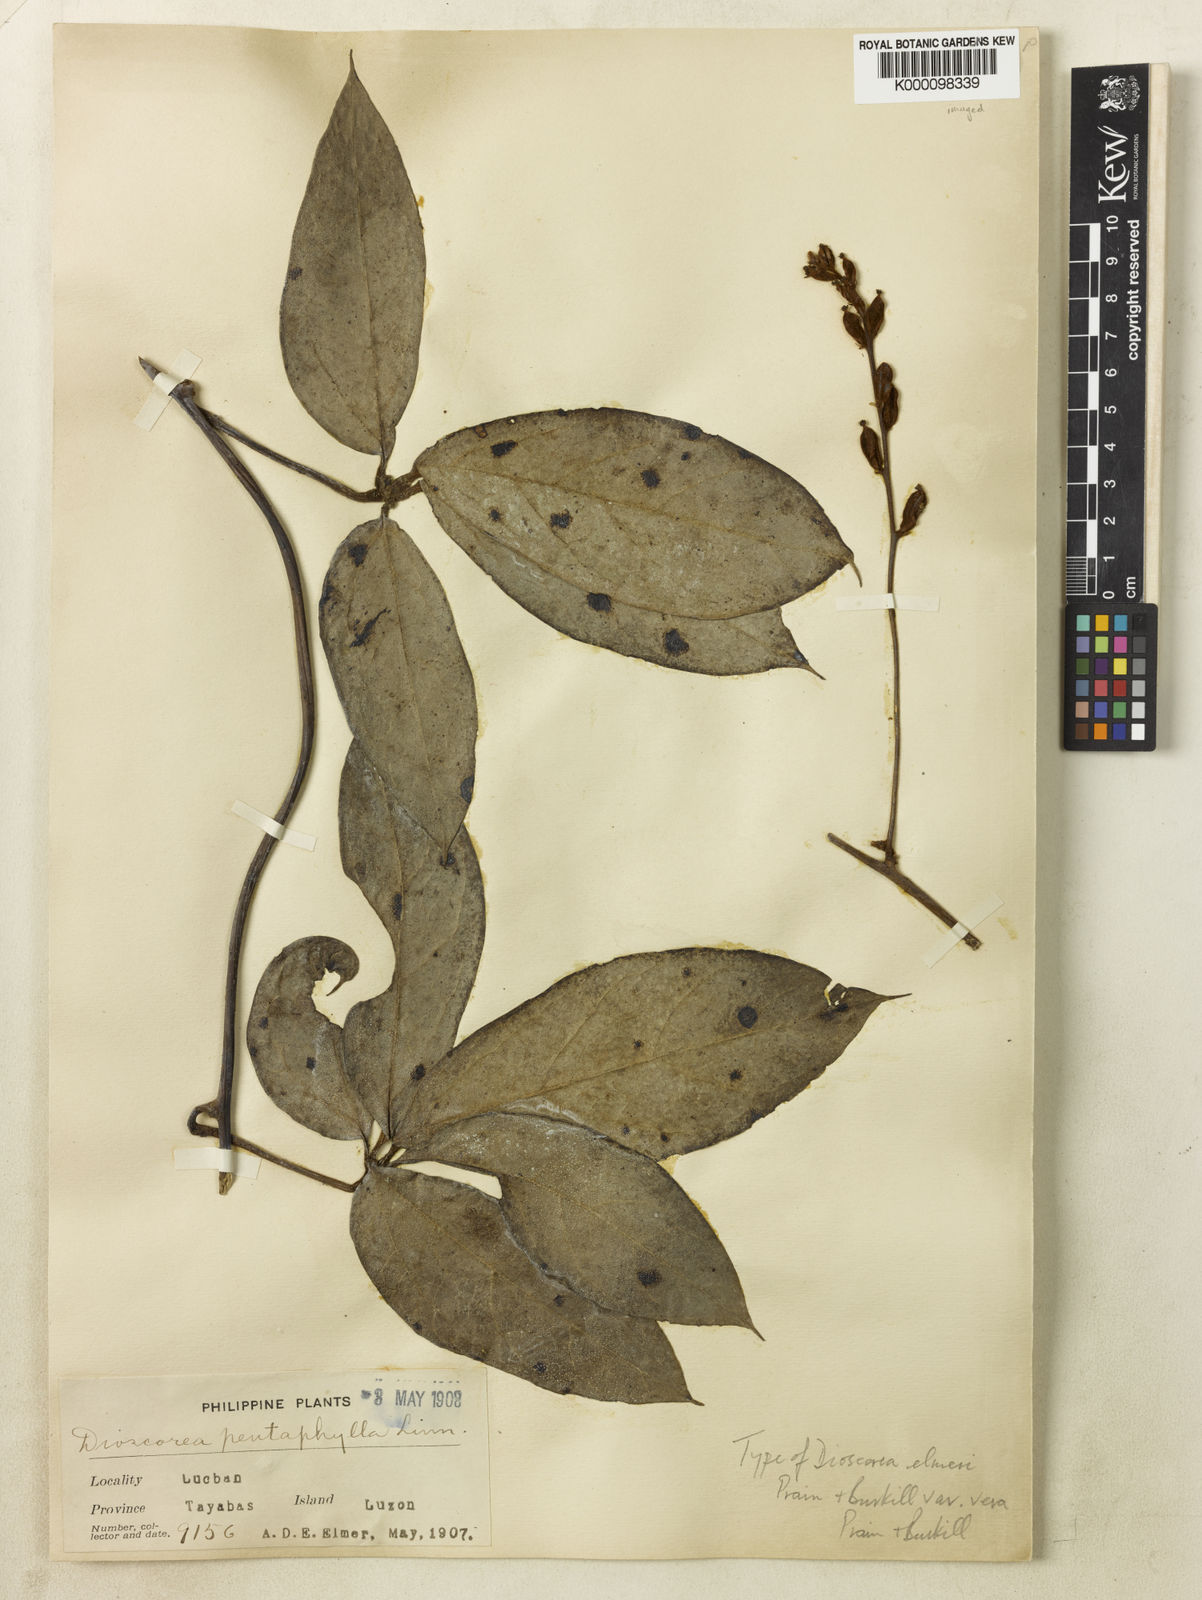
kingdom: Plantae
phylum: Tracheophyta
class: Liliopsida
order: Dioscoreales
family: Dioscoreaceae
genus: Dioscorea
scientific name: Dioscorea cumingii
